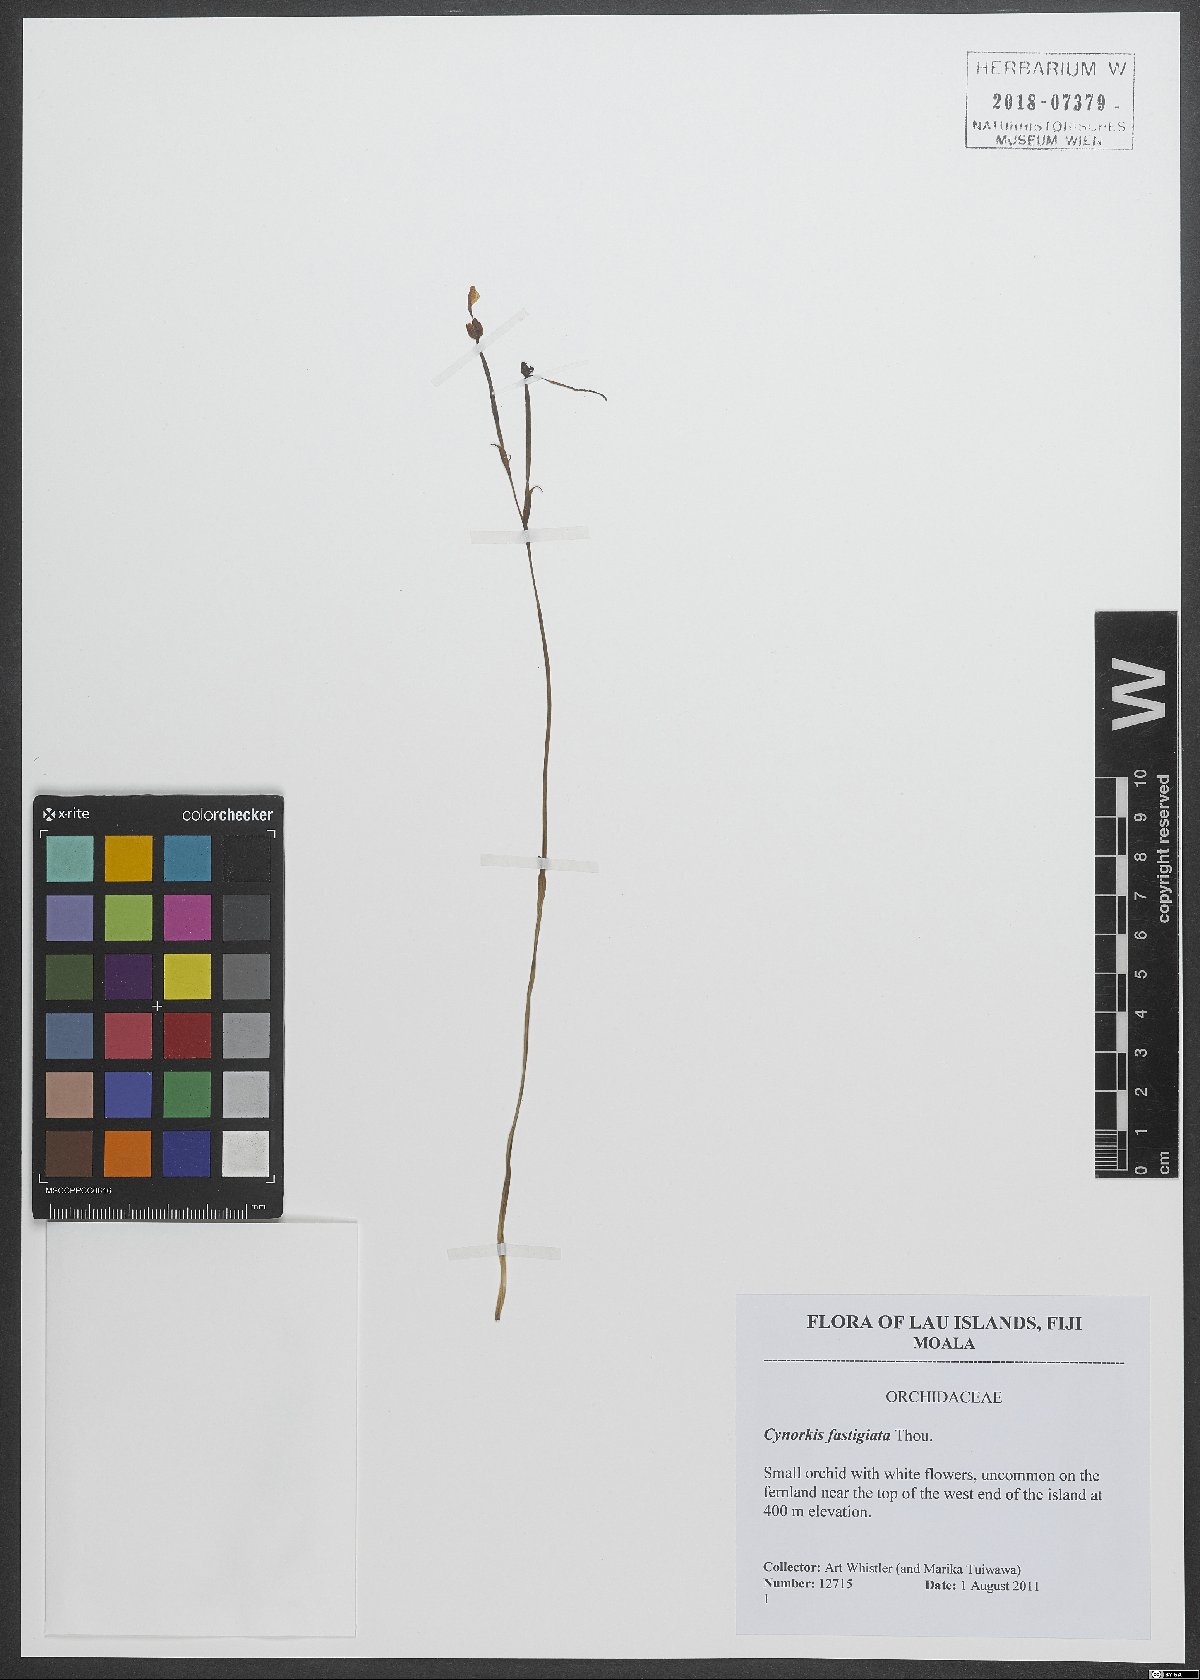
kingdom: Plantae
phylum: Tracheophyta
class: Liliopsida
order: Asparagales
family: Orchidaceae
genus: Cynorkis
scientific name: Cynorkis fastigiata
